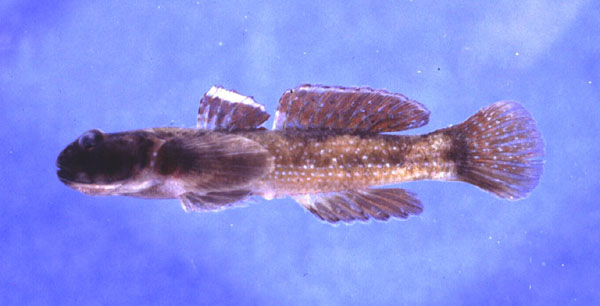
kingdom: Animalia
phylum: Chordata
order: Perciformes
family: Gobiidae
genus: Bathygobius
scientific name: Bathygobius cocosensis
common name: Cocos frillgoby
